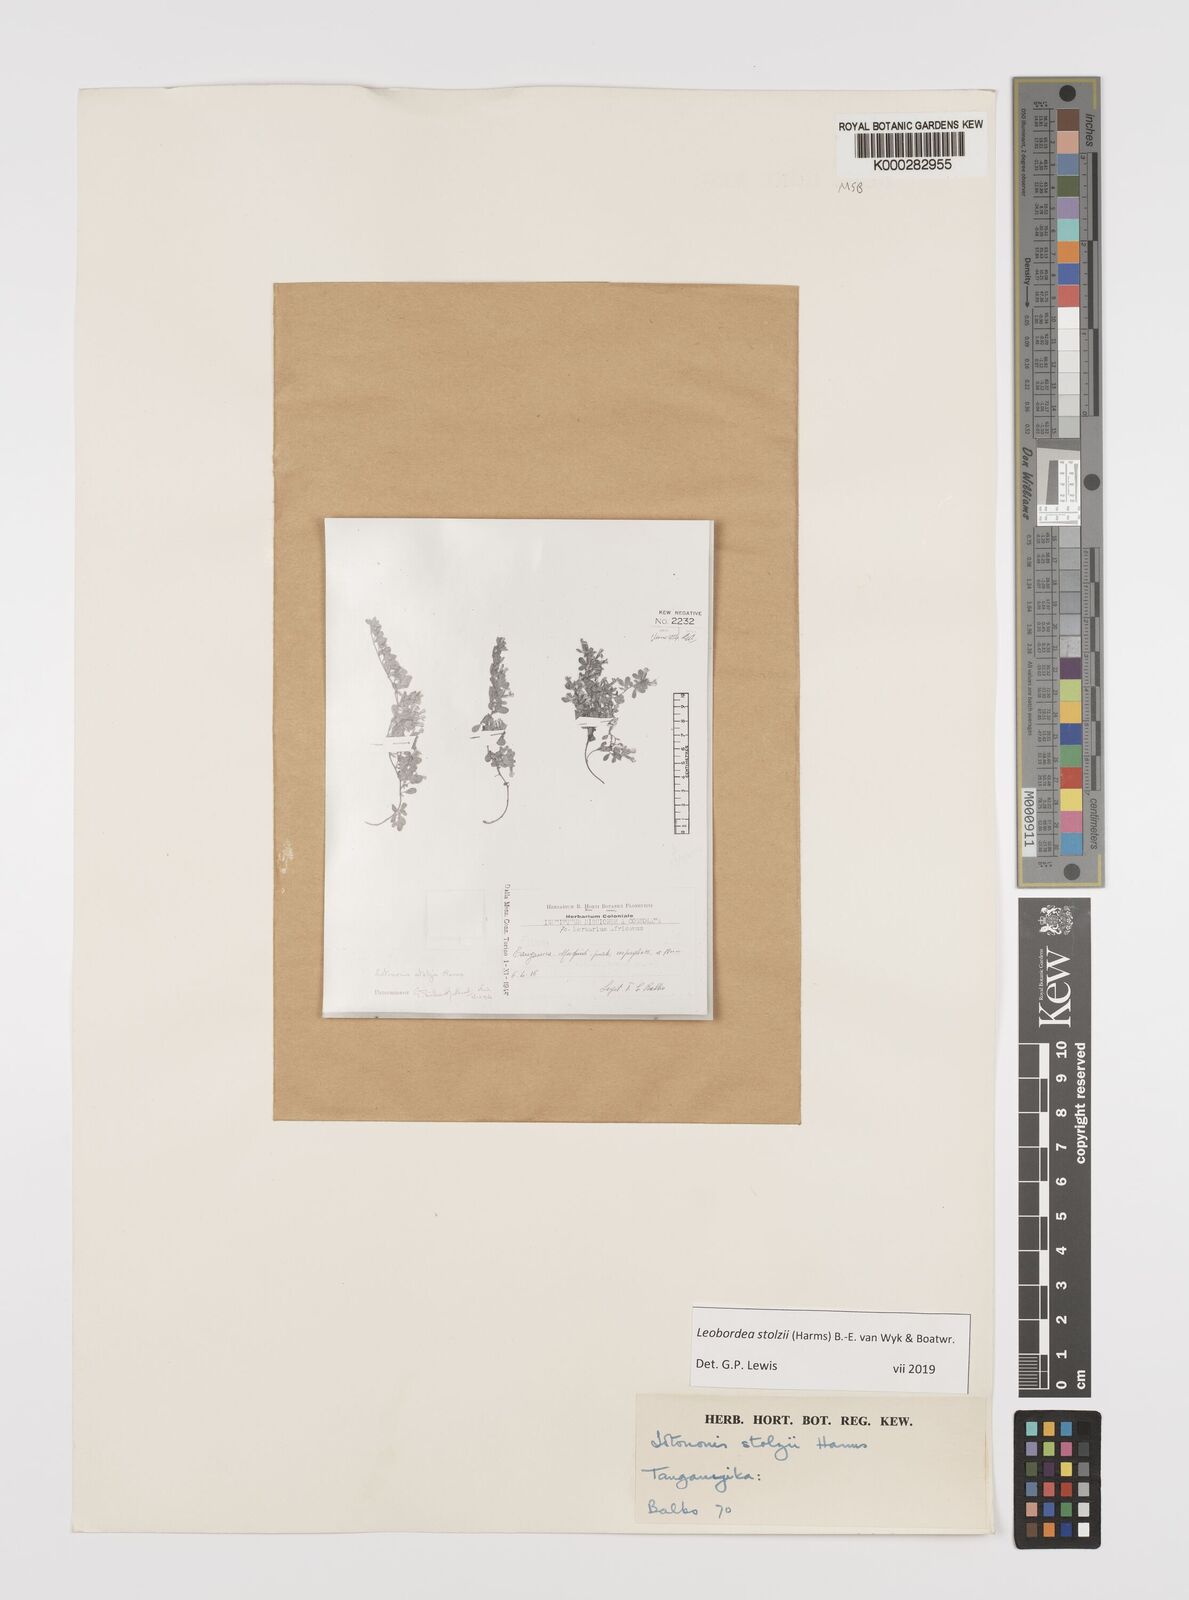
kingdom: Plantae
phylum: Tracheophyta
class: Magnoliopsida
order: Fabales
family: Fabaceae
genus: Leobordea
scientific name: Leobordea stolzii
